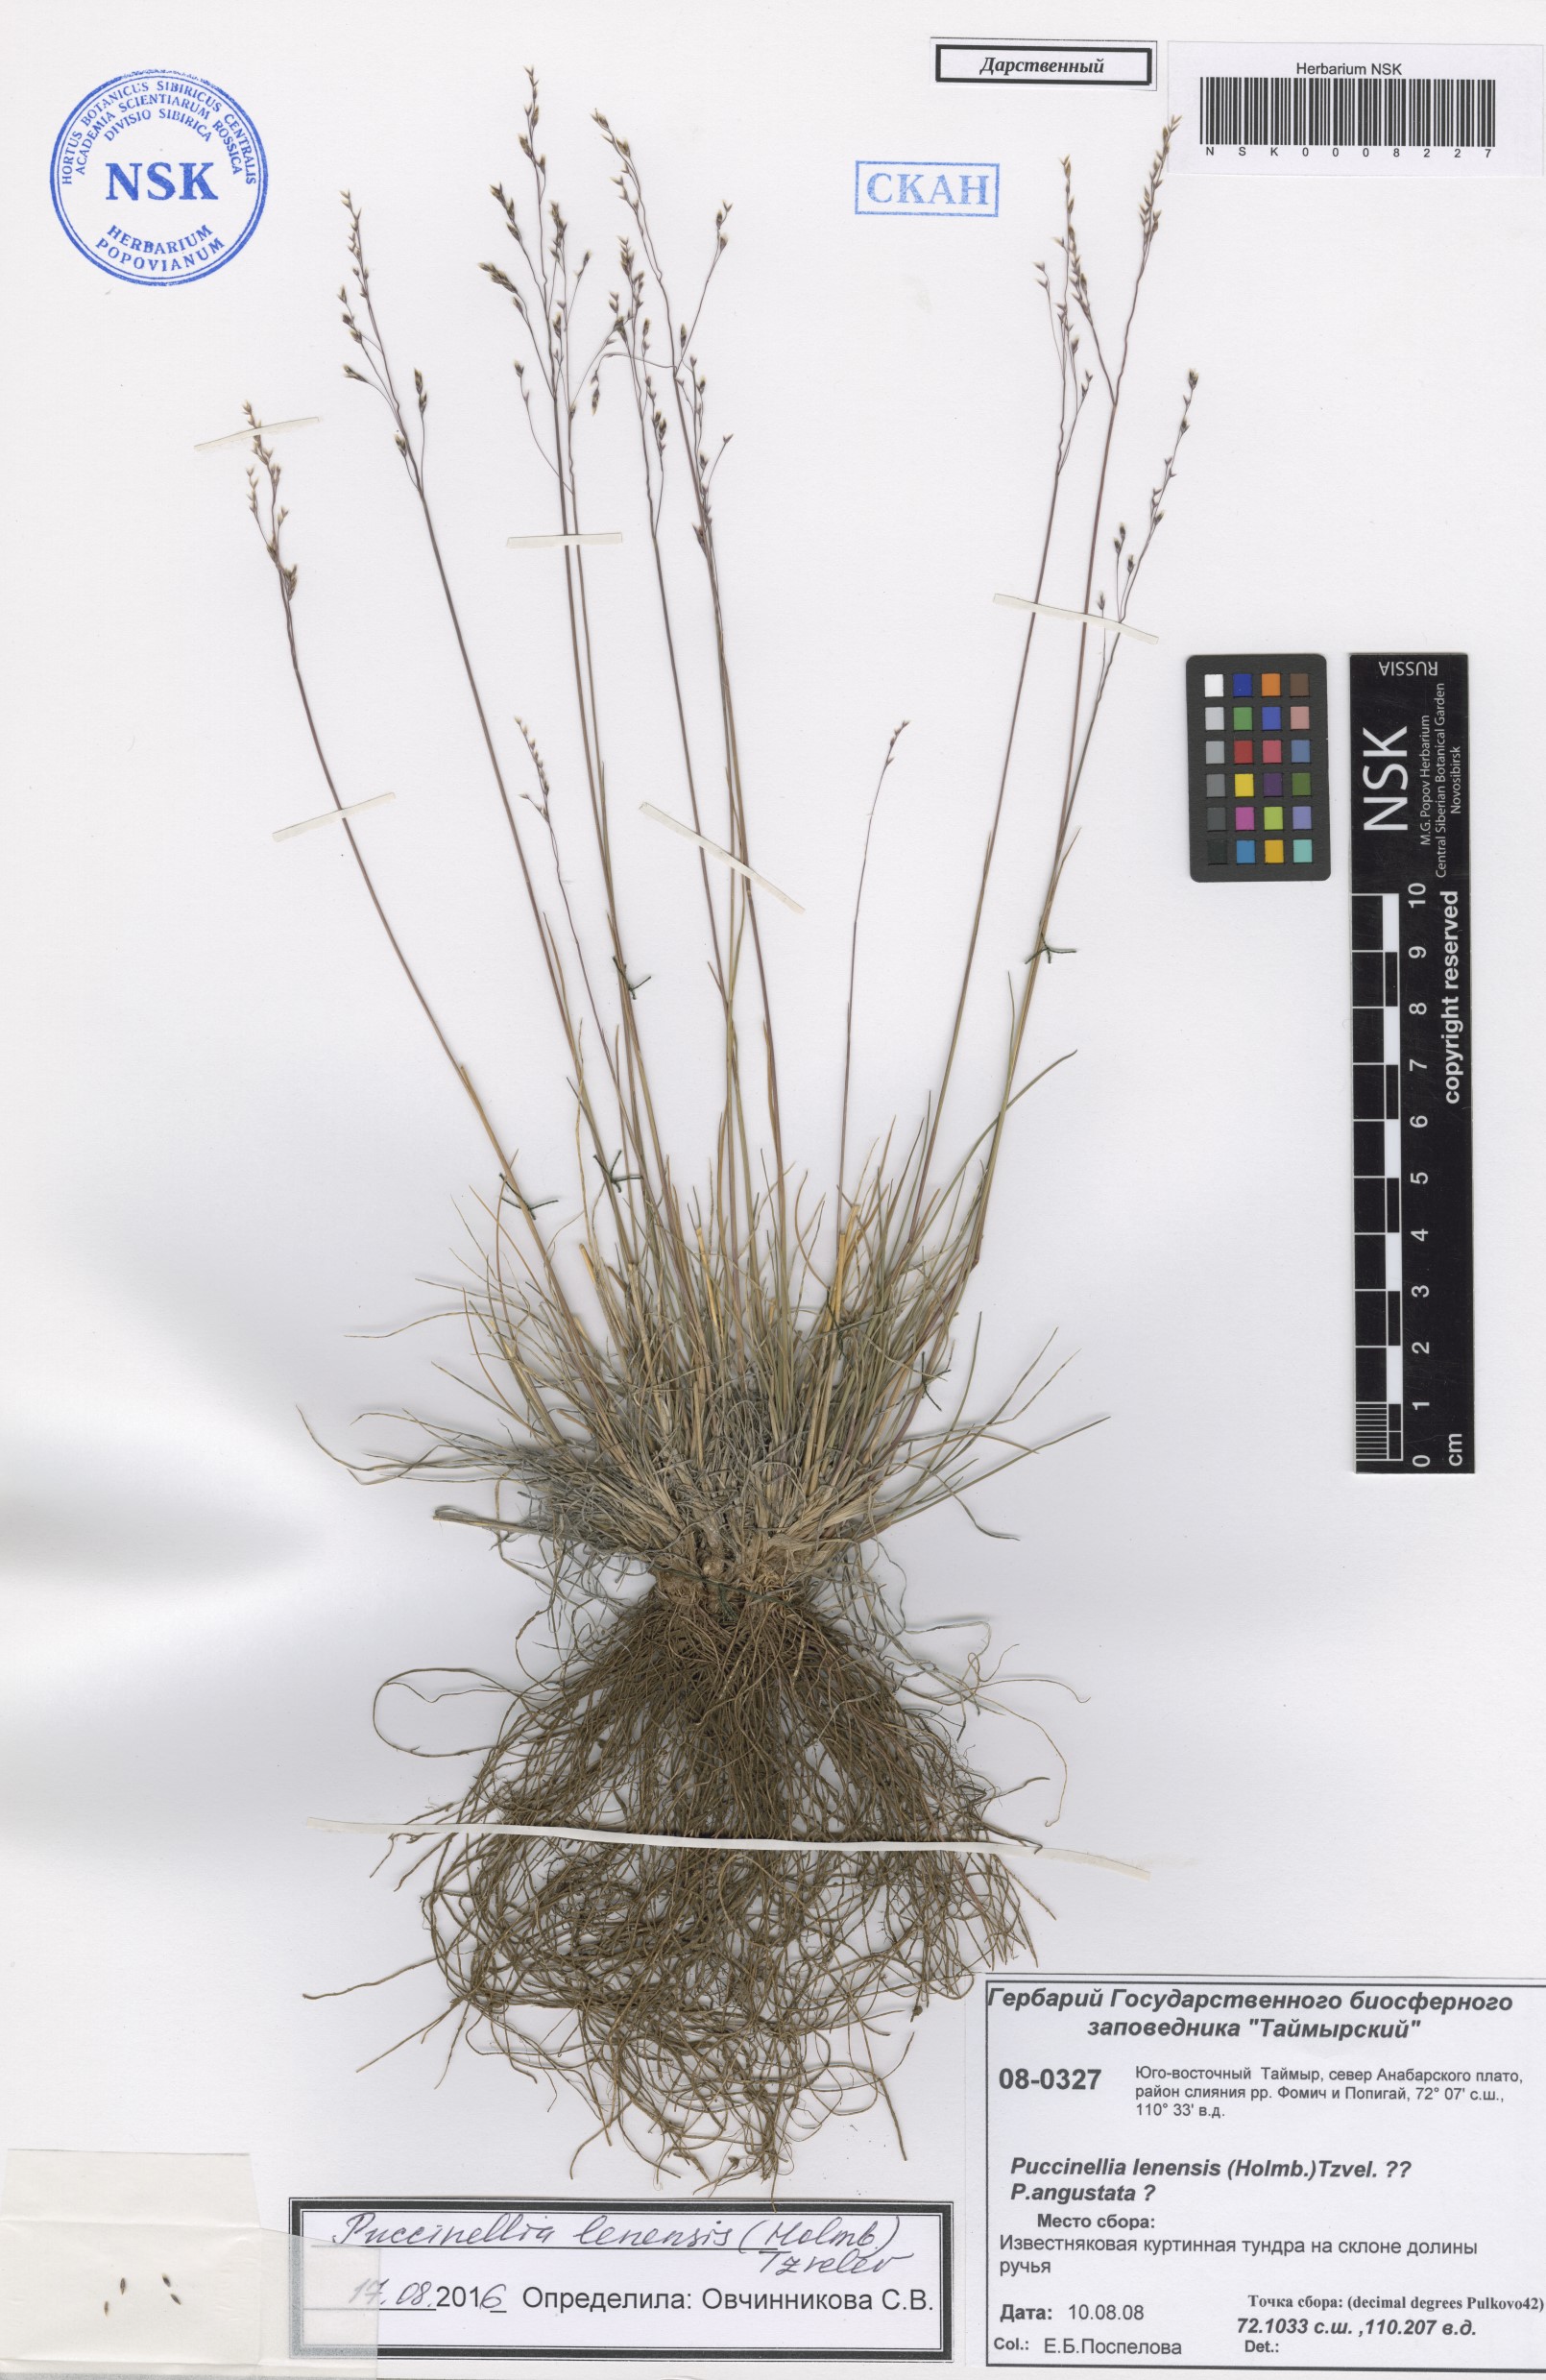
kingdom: Plantae
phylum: Tracheophyta
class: Liliopsida
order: Poales
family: Poaceae
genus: Puccinellia
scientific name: Puccinellia lenensis
